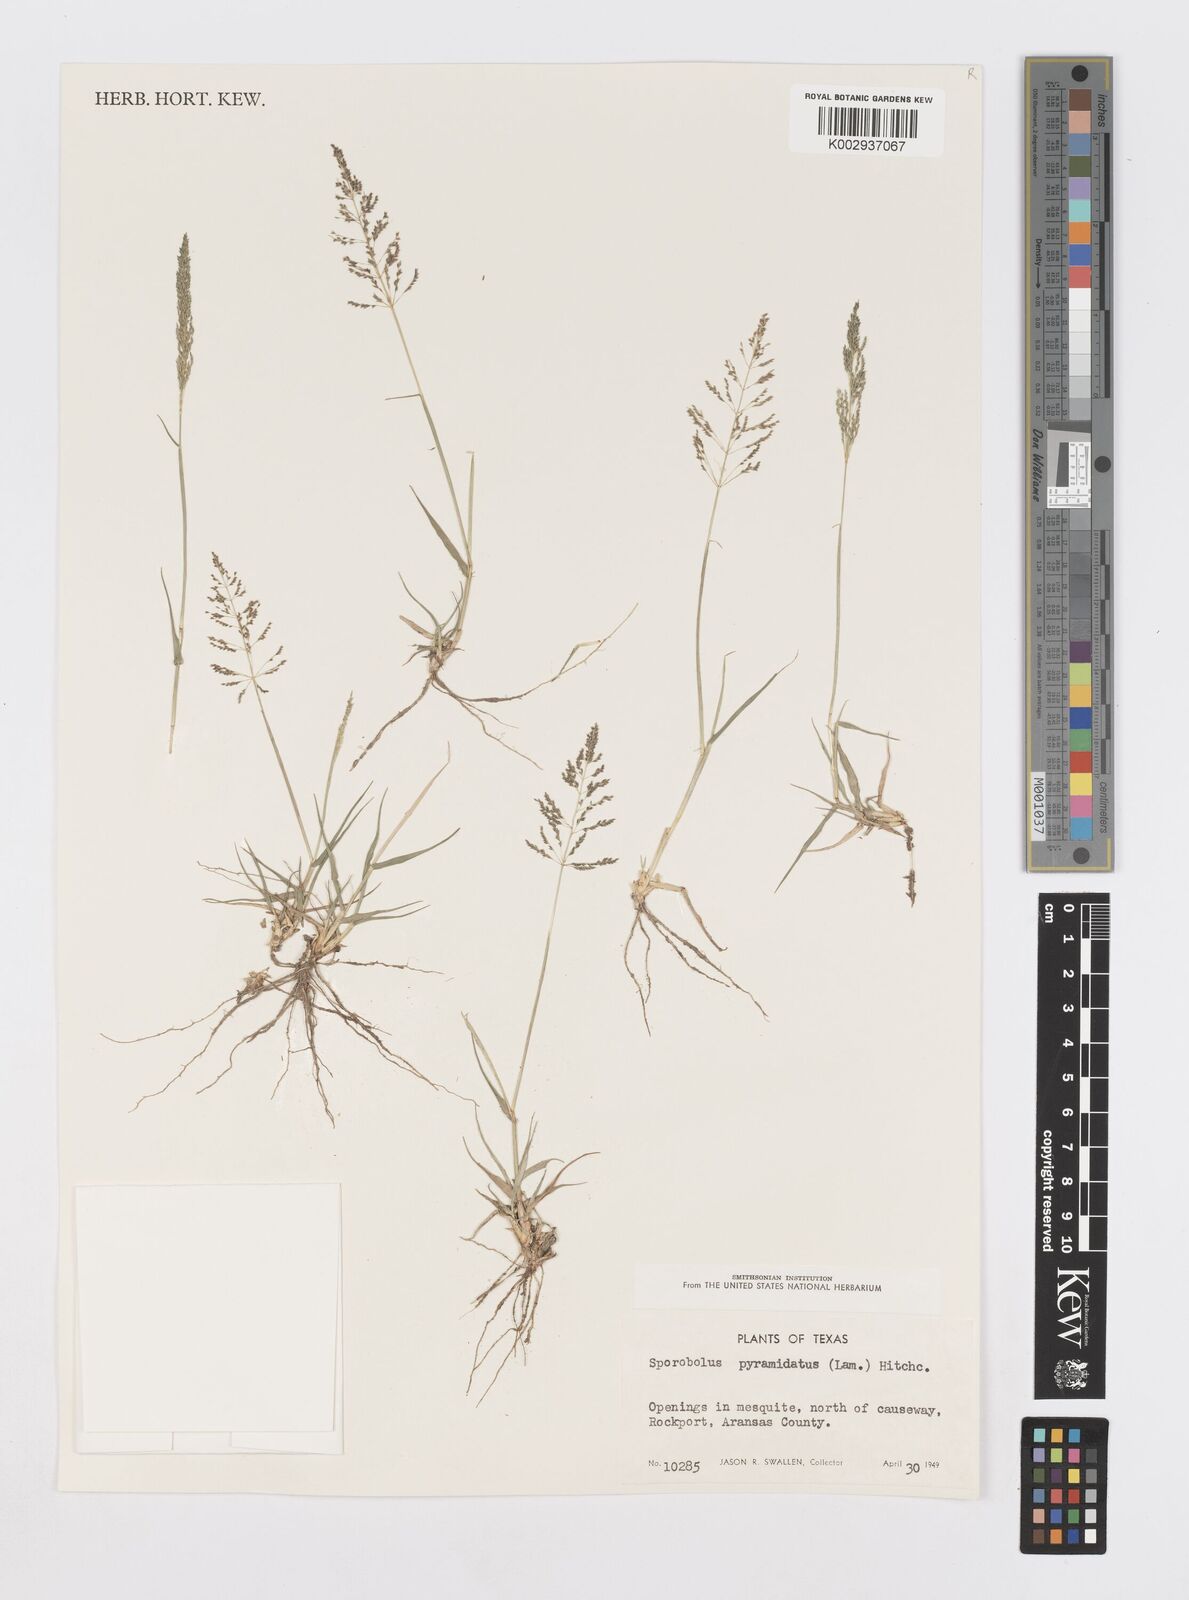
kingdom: Plantae
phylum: Tracheophyta
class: Liliopsida
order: Poales
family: Poaceae
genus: Sporobolus
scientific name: Sporobolus pyramidatus
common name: Whorled dropseed
